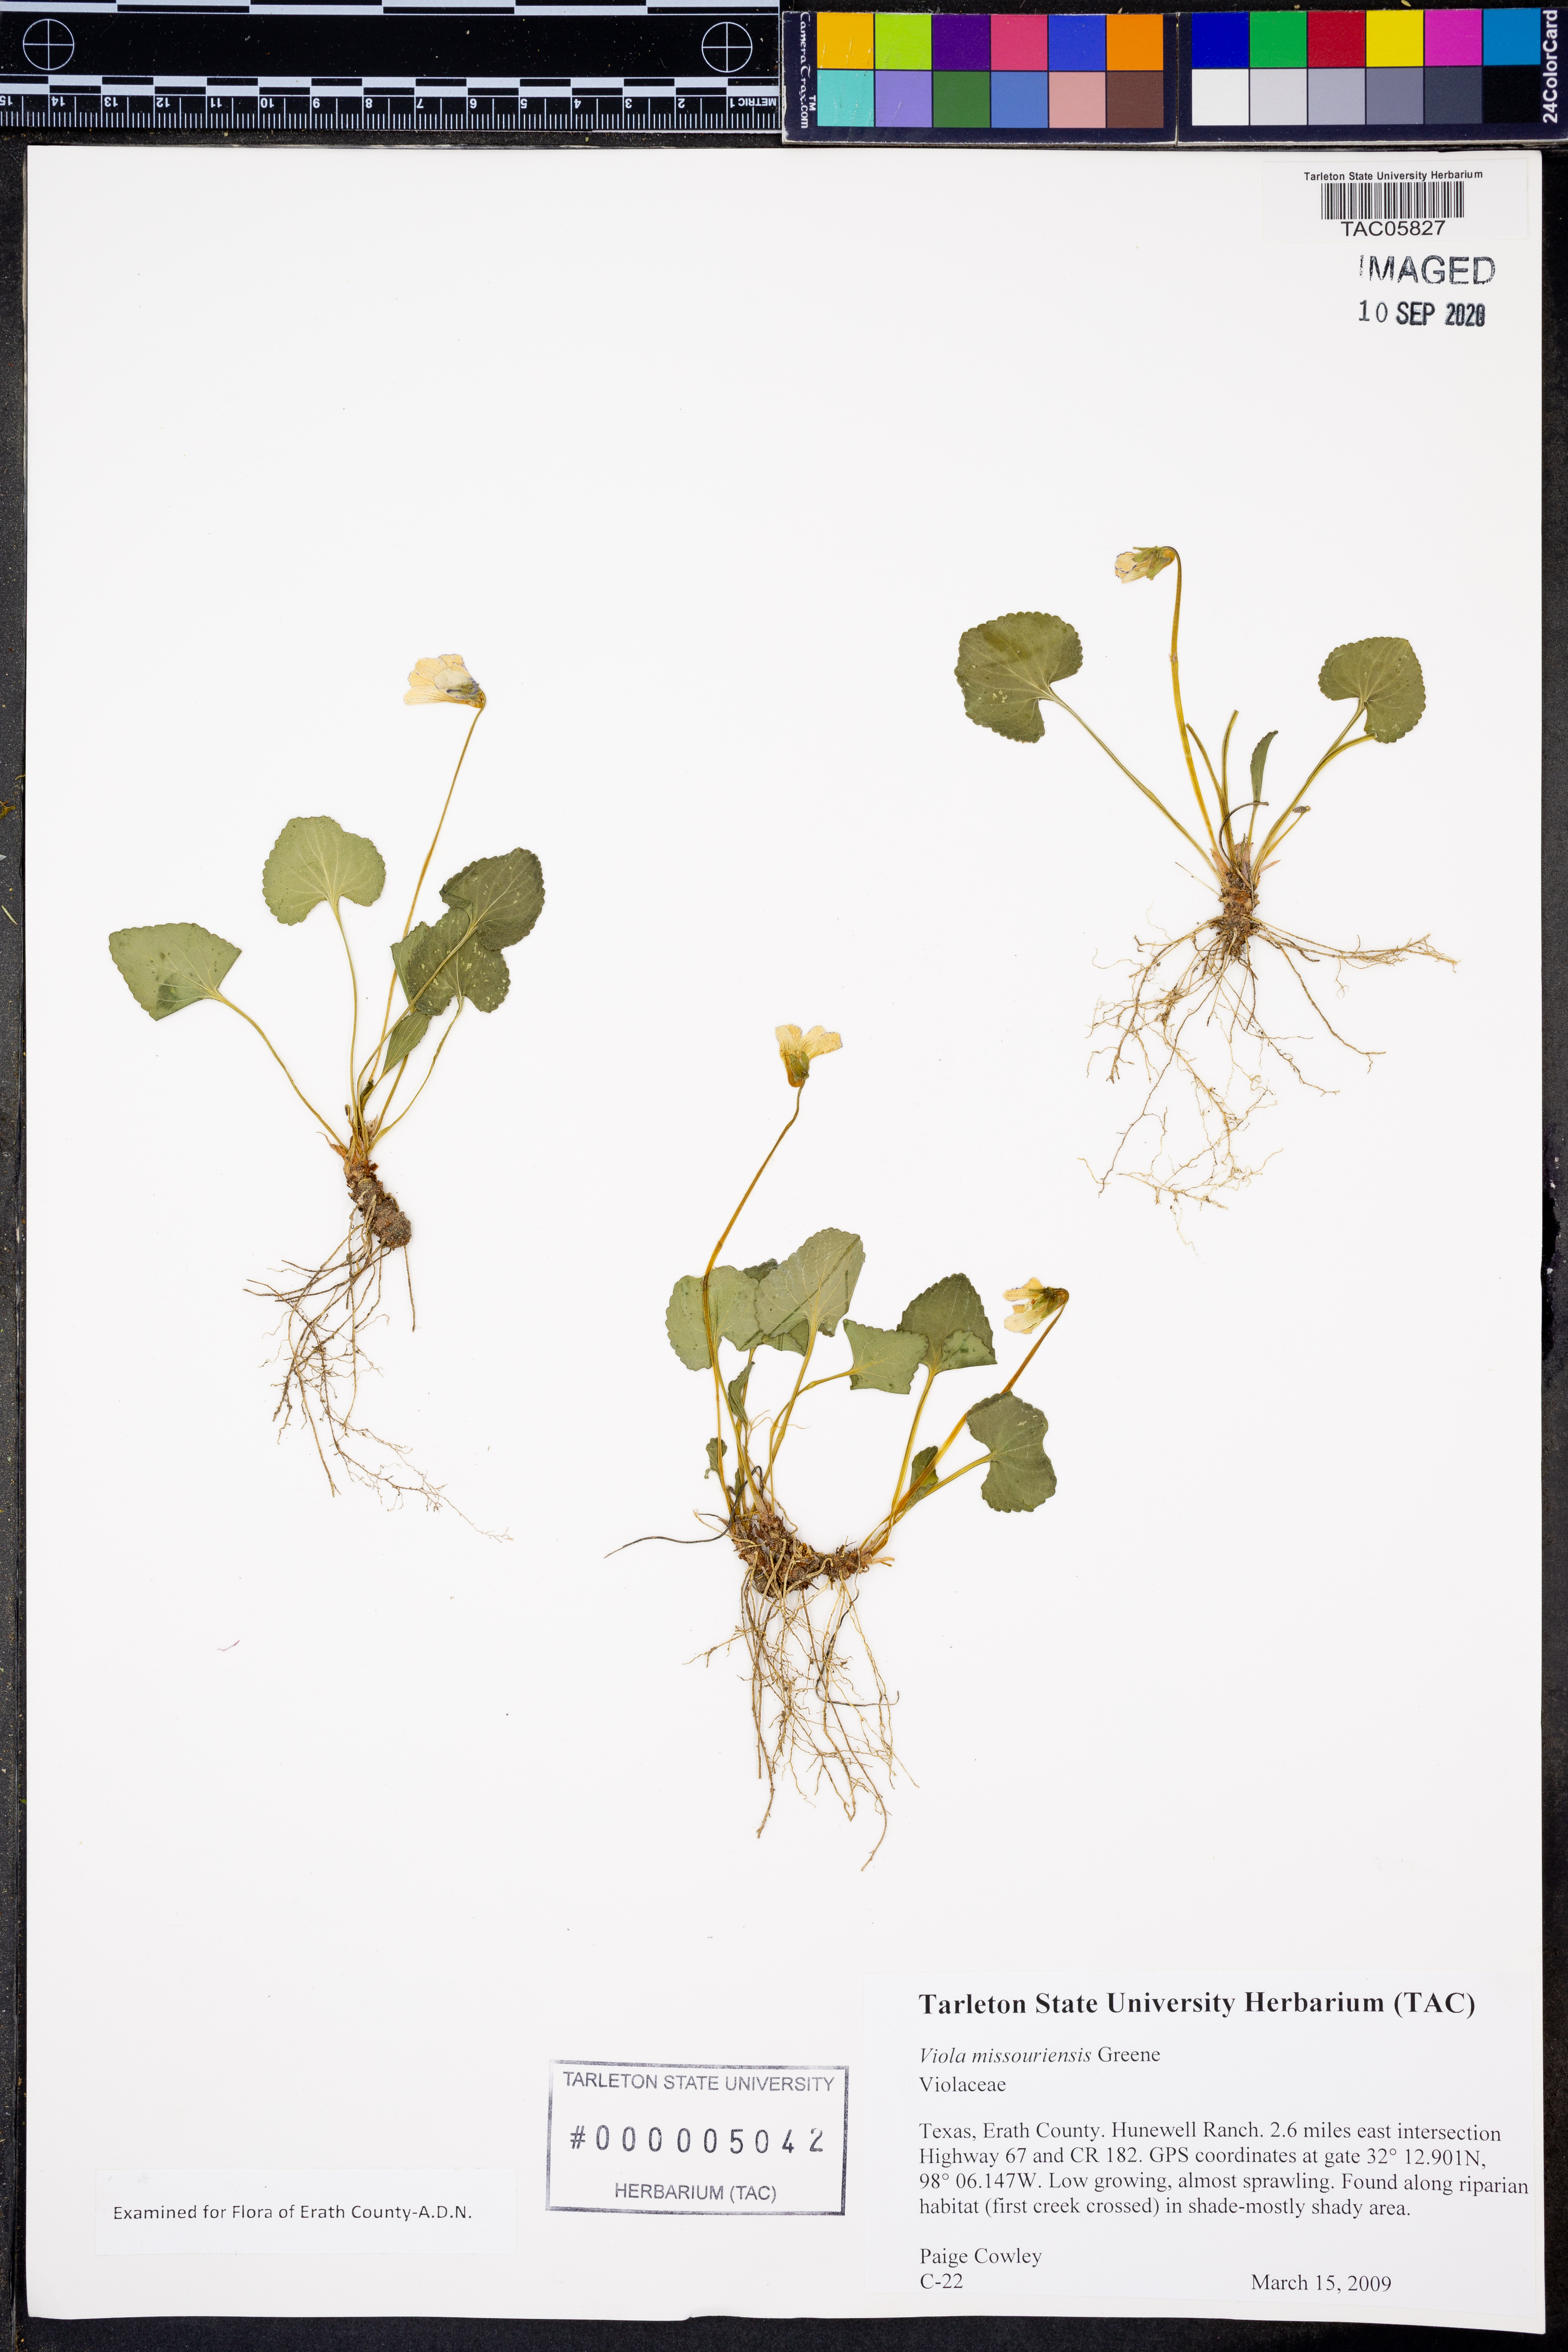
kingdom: Plantae
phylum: Tracheophyta
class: Magnoliopsida
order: Malpighiales
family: Violaceae
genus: Viola
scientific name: Viola missouriensis
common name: Missouri violet
